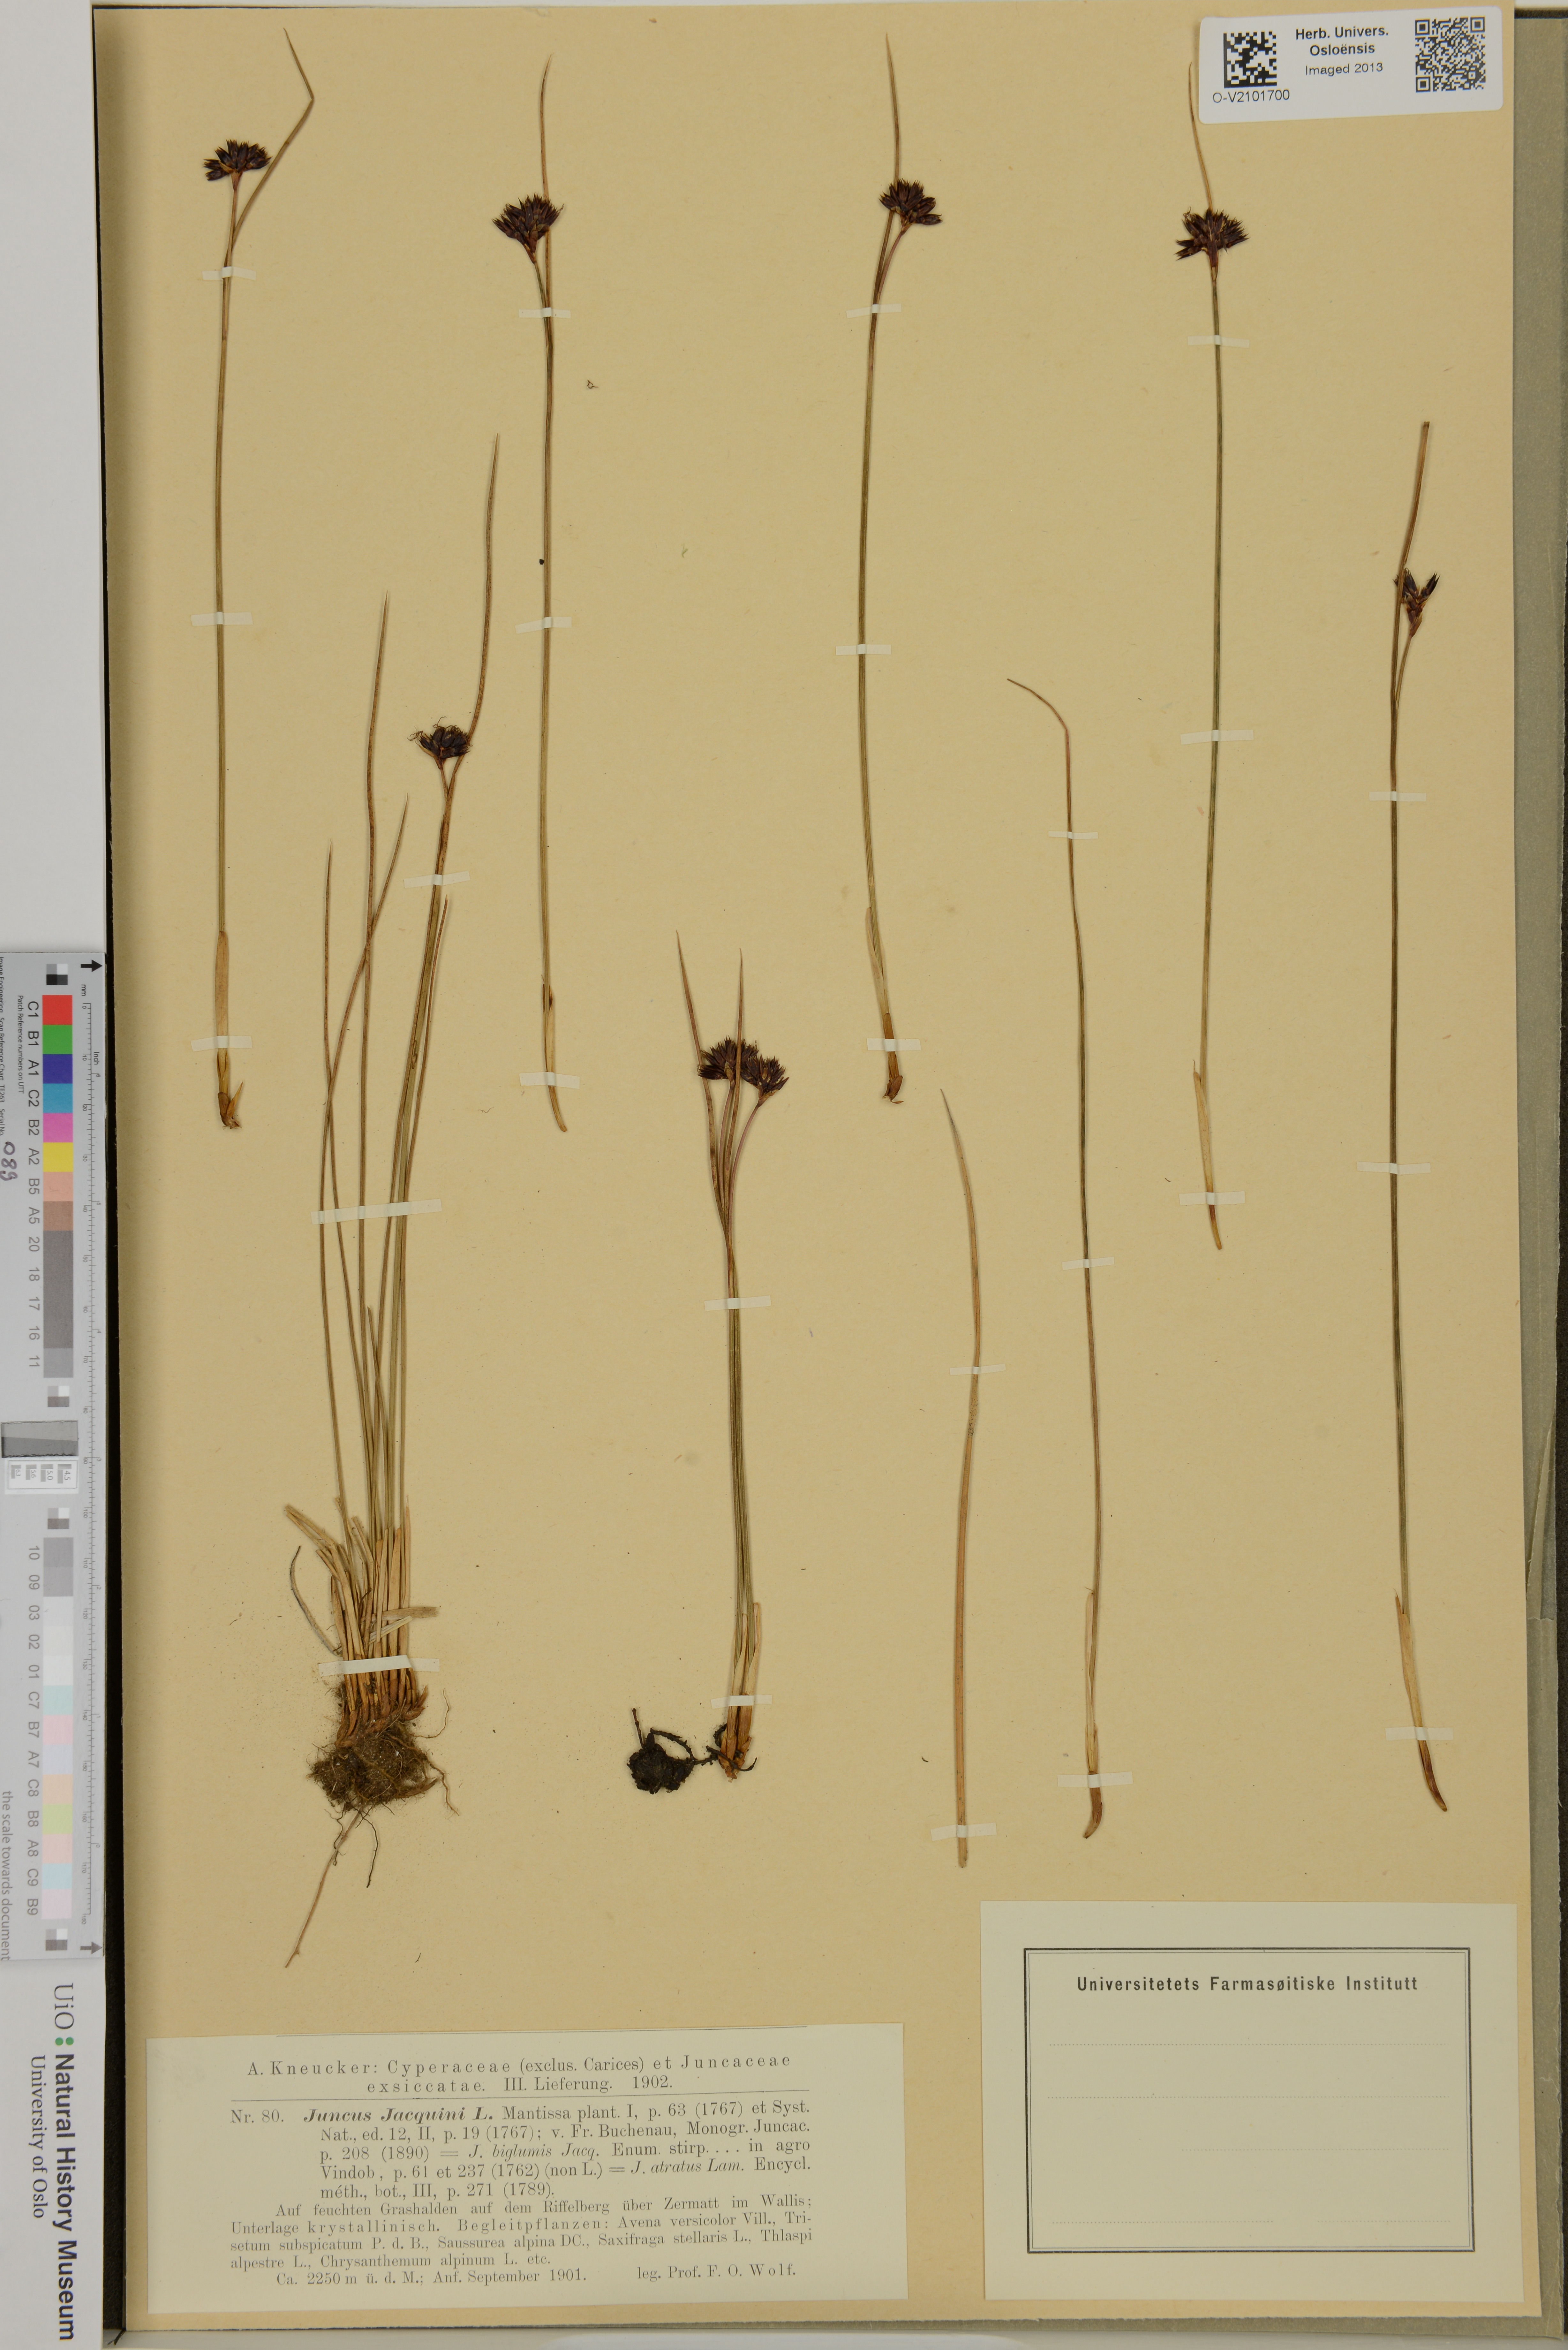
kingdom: Plantae
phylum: Tracheophyta
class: Liliopsida
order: Poales
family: Juncaceae
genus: Juncus
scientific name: Juncus jacquinii
